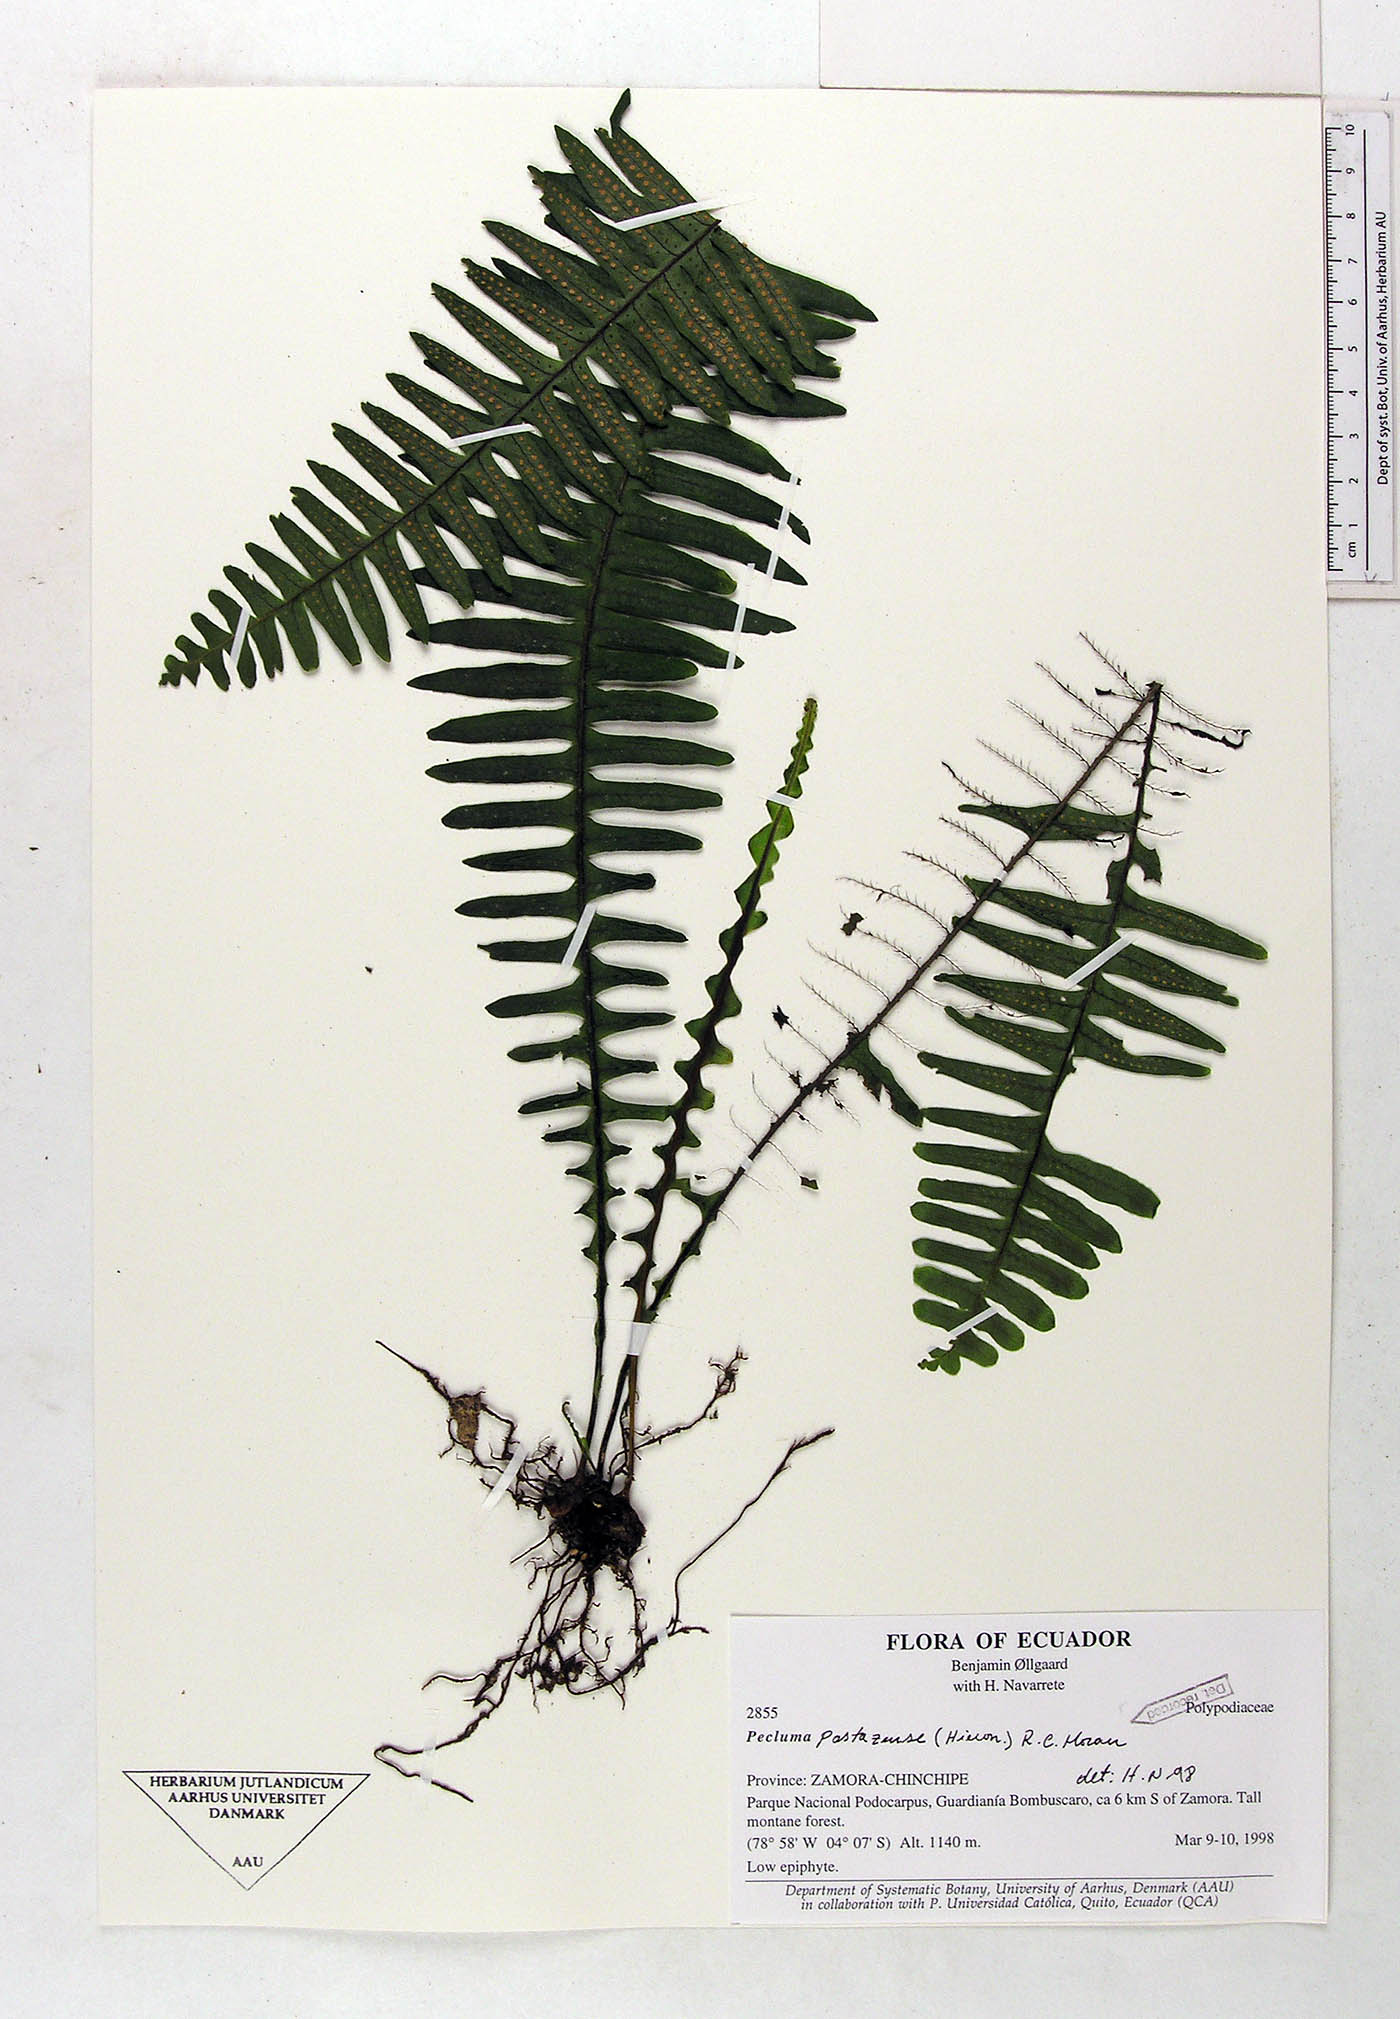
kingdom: Plantae
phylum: Tracheophyta
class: Polypodiopsida
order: Polypodiales
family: Polypodiaceae
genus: Pecluma
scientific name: Pecluma pastazensis
